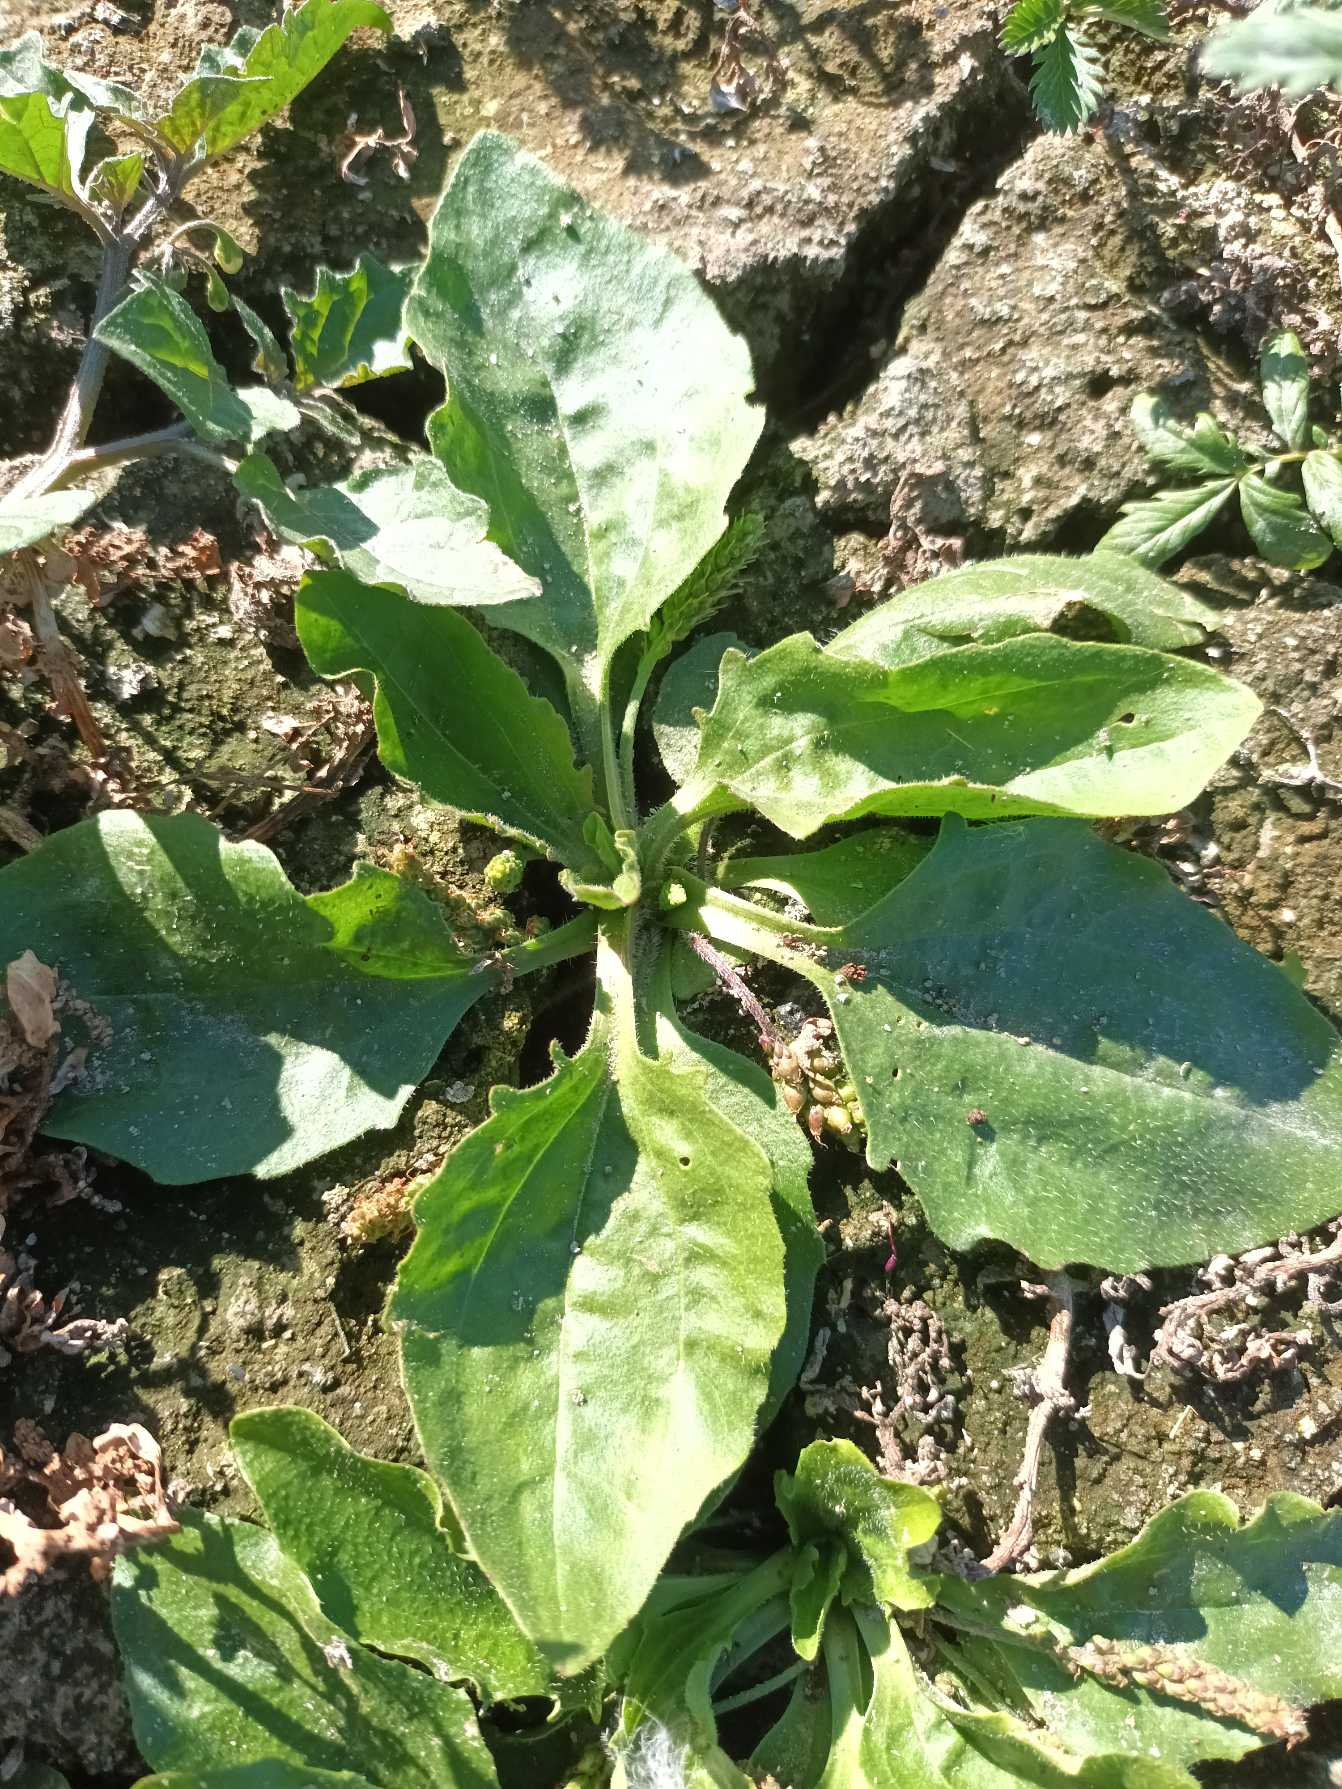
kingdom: Plantae
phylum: Tracheophyta
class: Magnoliopsida
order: Lamiales
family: Plantaginaceae
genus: Plantago
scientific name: Plantago uliginosa
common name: Ager-vejbred
